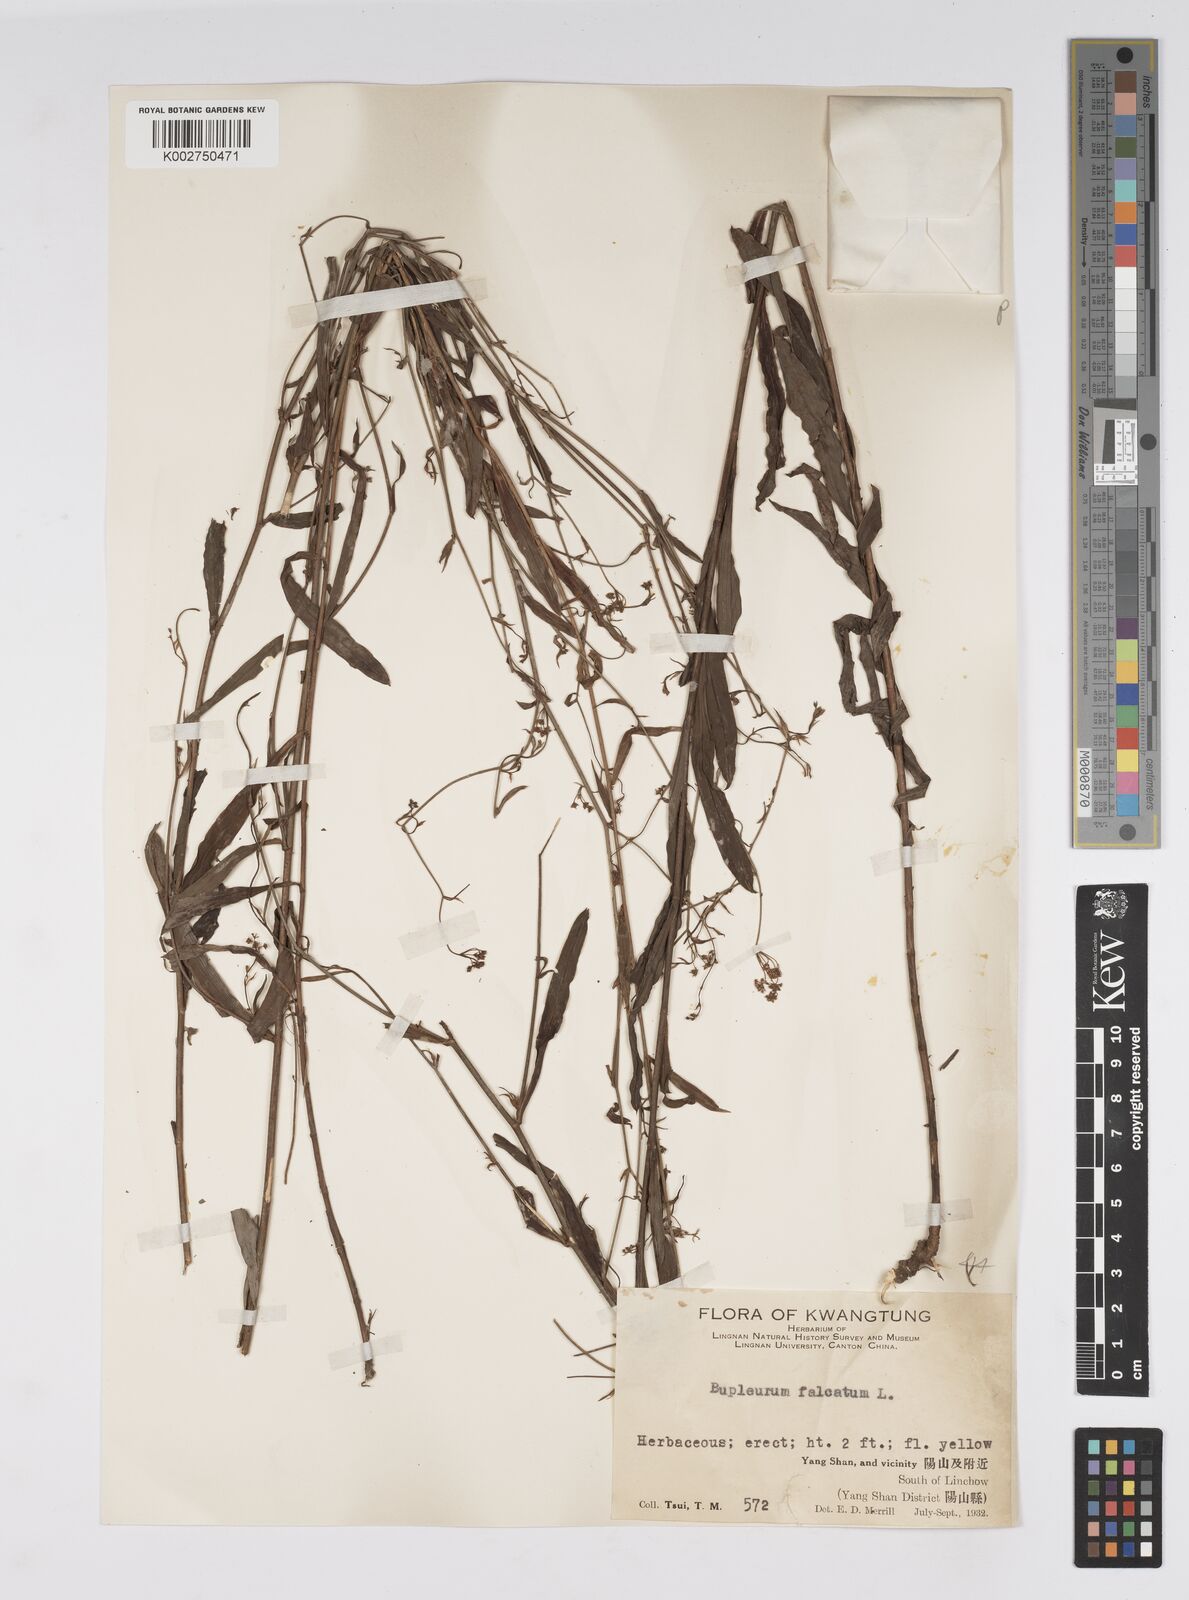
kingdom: Plantae
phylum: Tracheophyta
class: Magnoliopsida
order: Apiales
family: Apiaceae
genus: Bupleurum
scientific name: Bupleurum krylovianum
